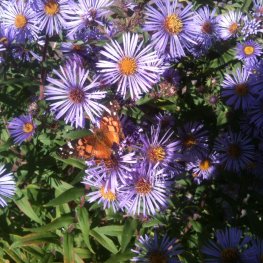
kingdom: Animalia
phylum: Arthropoda
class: Insecta
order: Lepidoptera
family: Nymphalidae
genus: Vanessa
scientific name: Vanessa virginiensis
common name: American Lady
